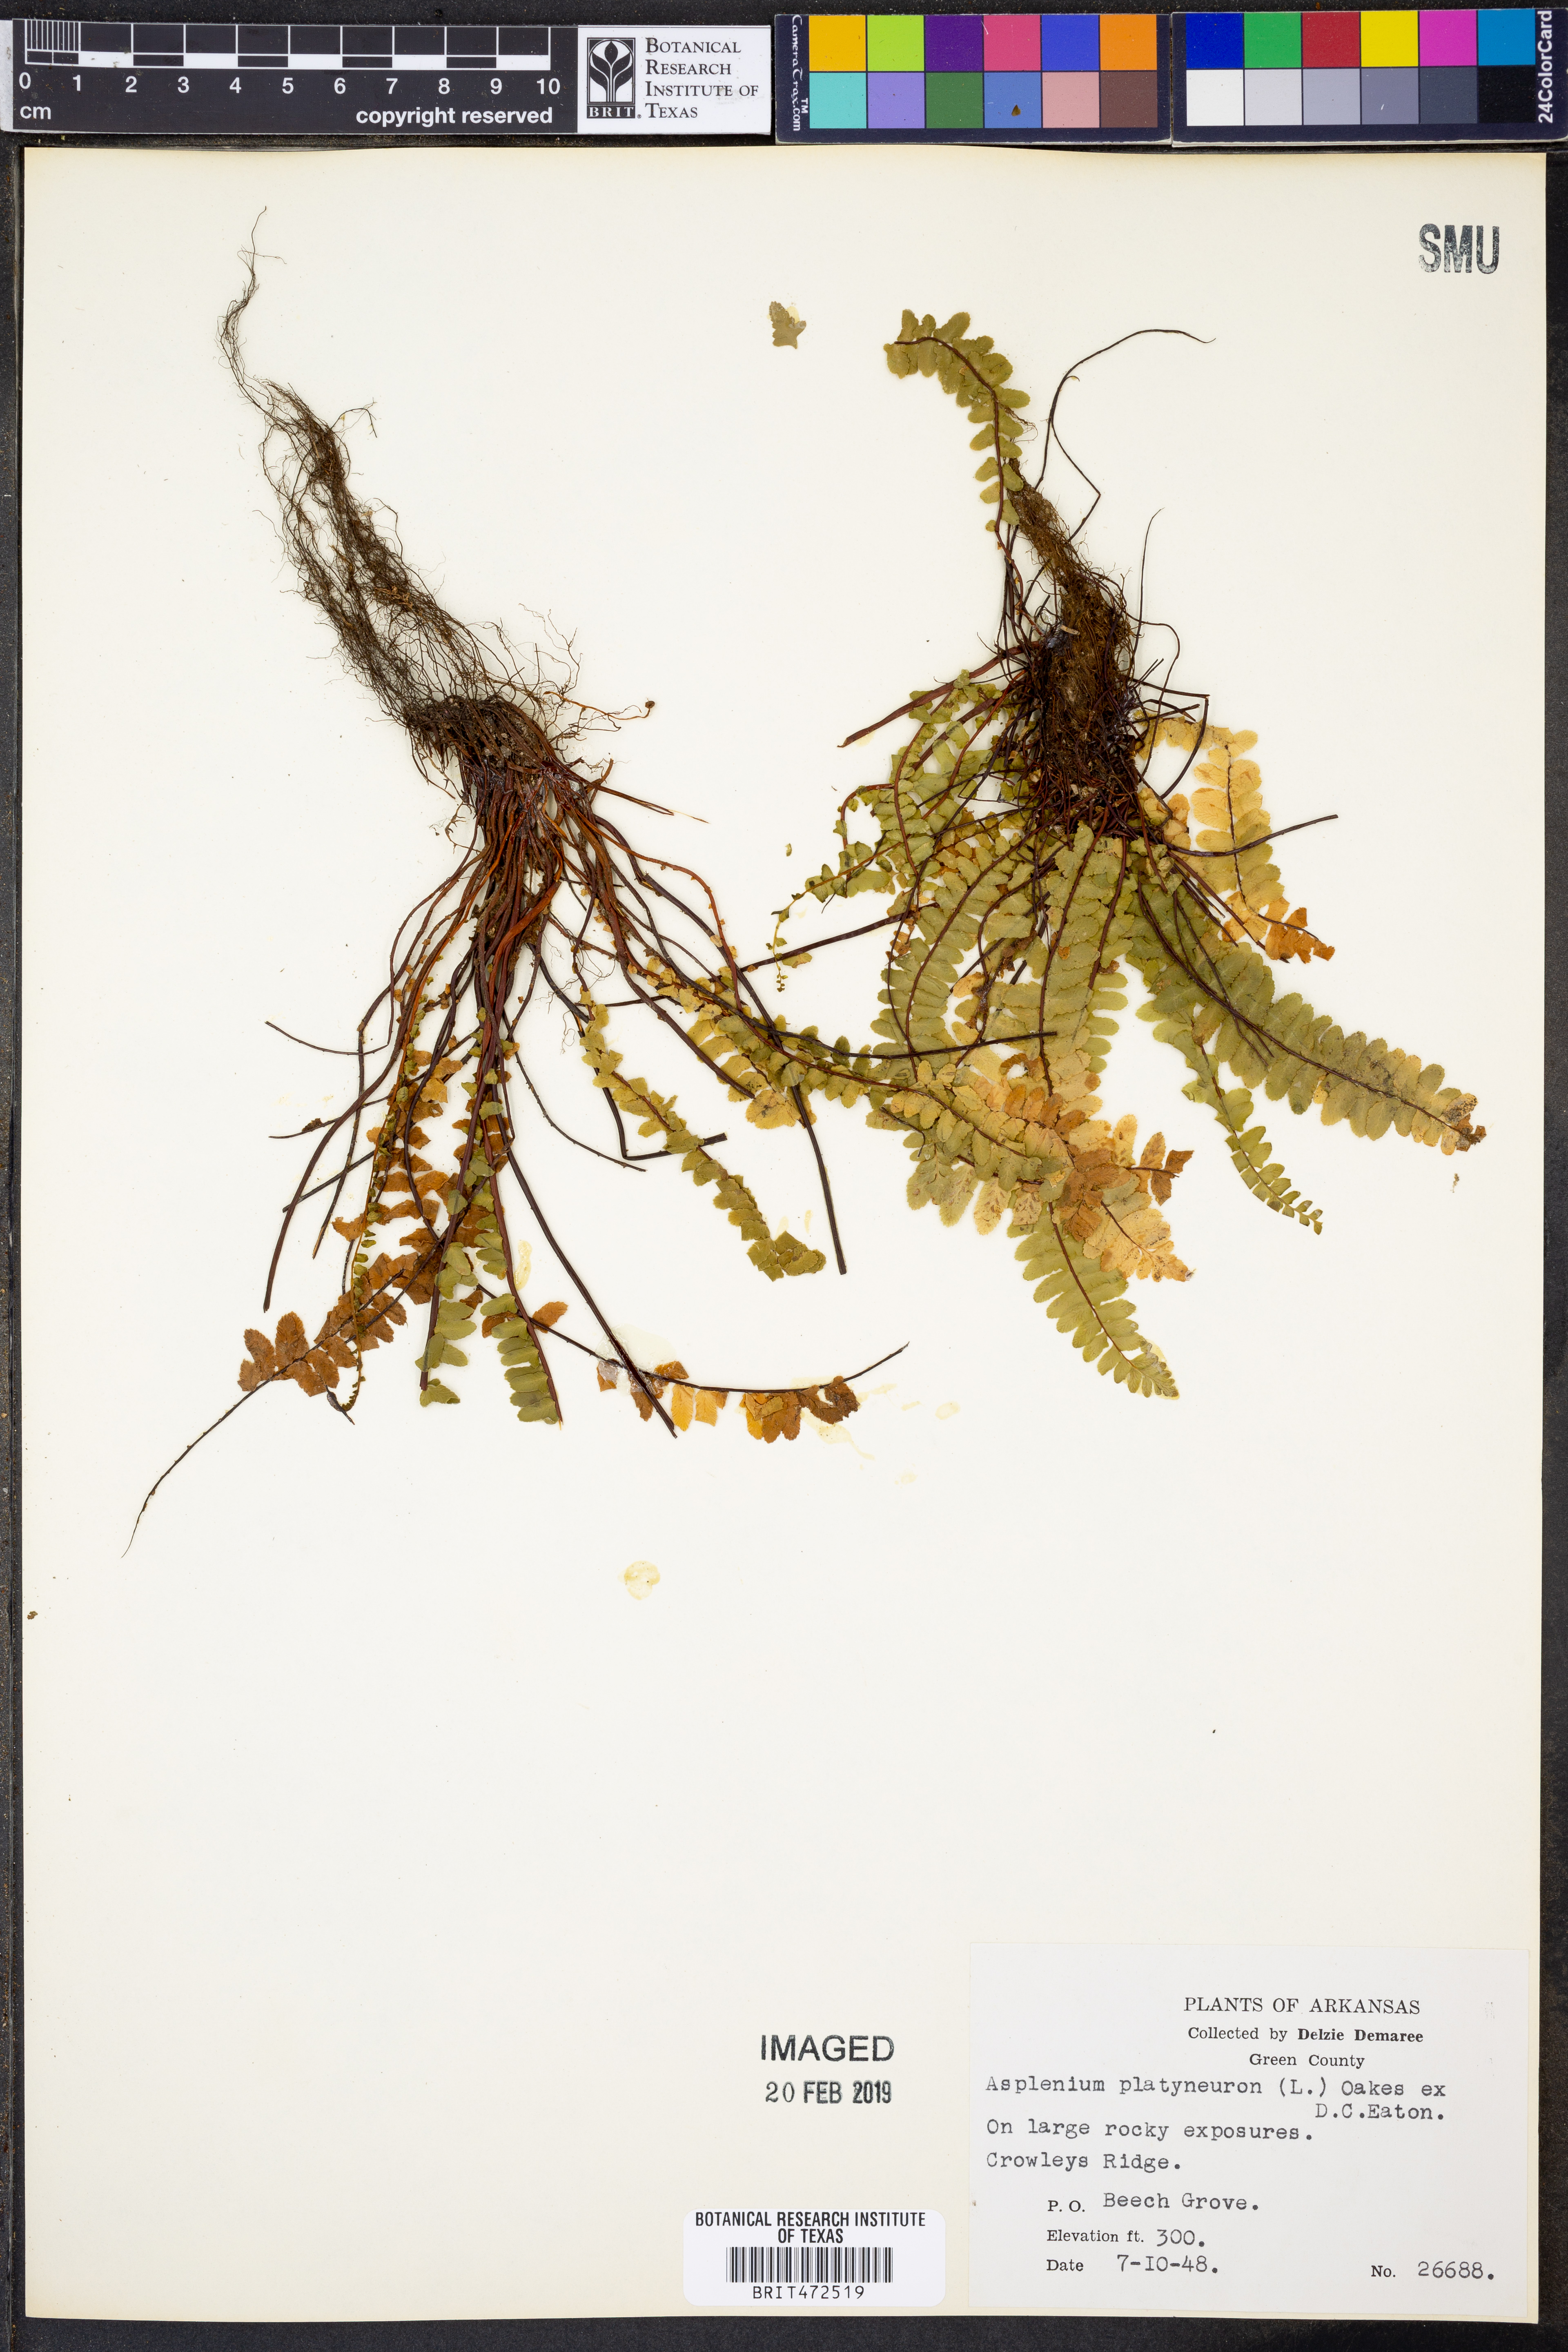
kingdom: Plantae
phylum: Tracheophyta
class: Polypodiopsida
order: Polypodiales
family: Aspleniaceae
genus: Asplenium
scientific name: Asplenium platyneuron
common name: Ebony spleenwort
